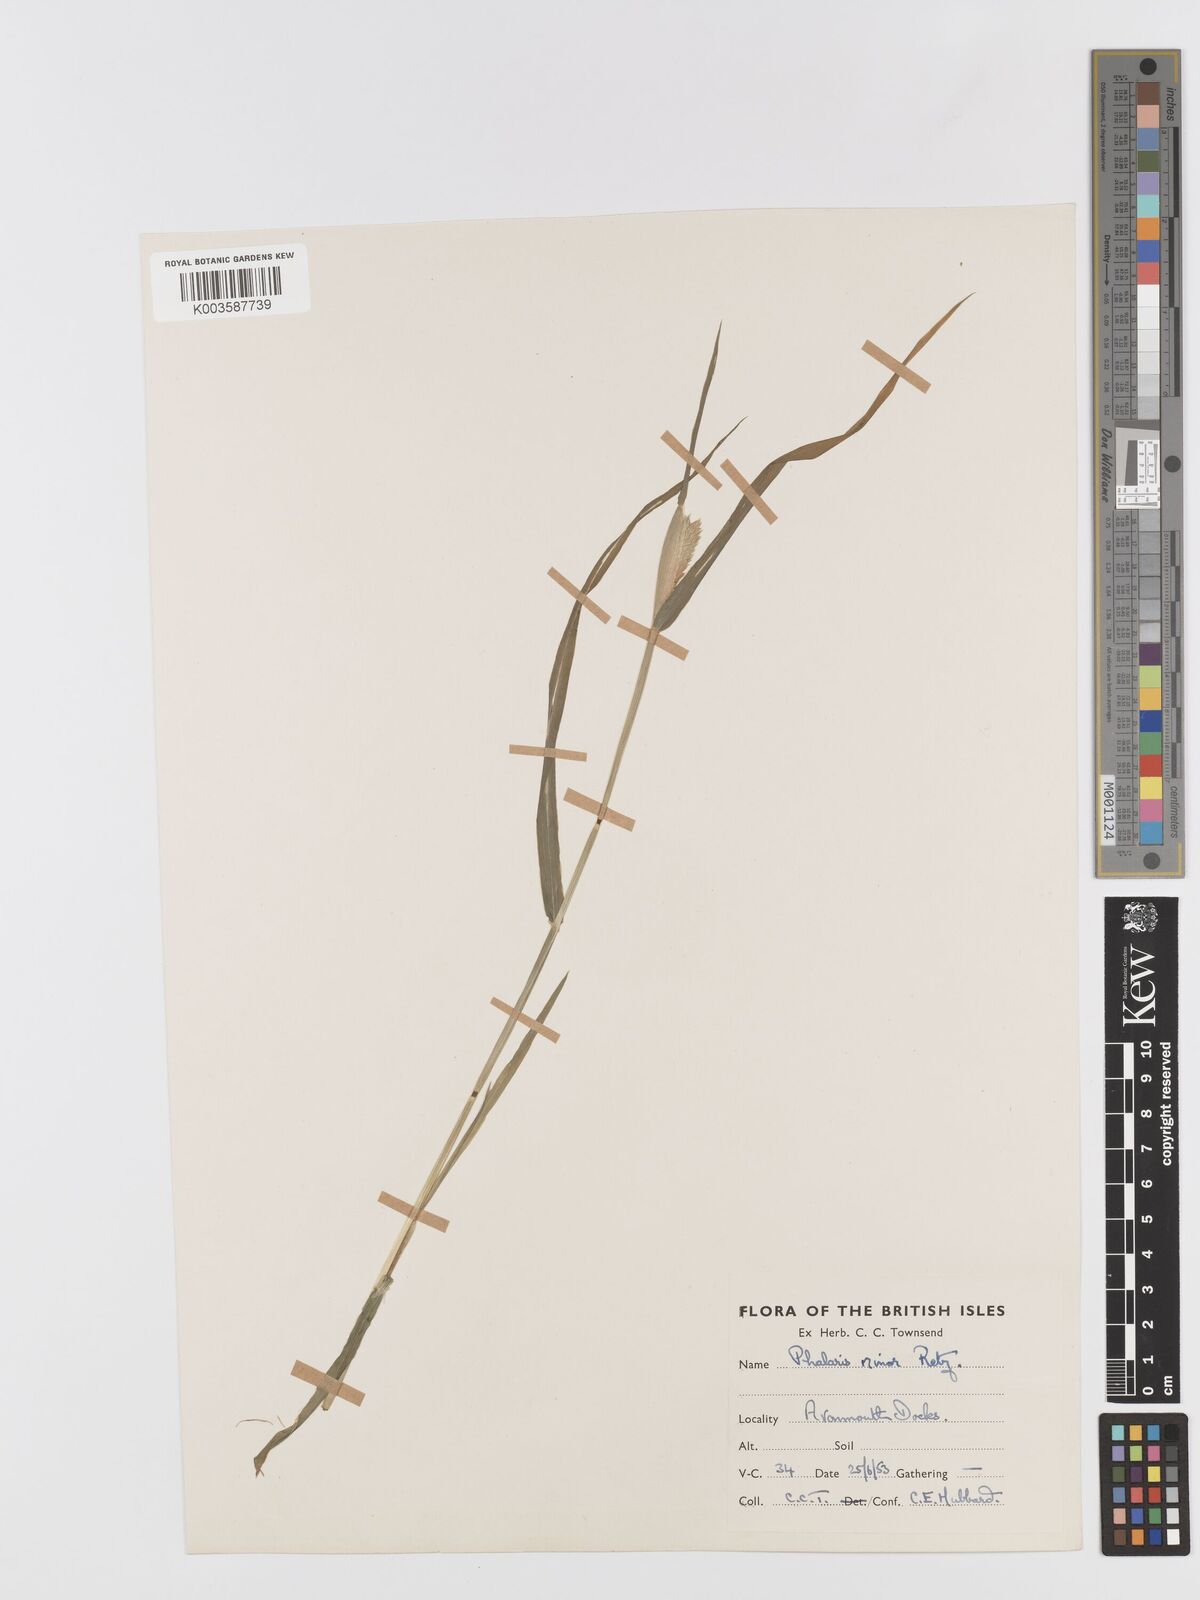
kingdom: Plantae
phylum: Tracheophyta
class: Liliopsida
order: Poales
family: Poaceae
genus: Phalaris
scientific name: Phalaris minor
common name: Littleseed canarygrass
